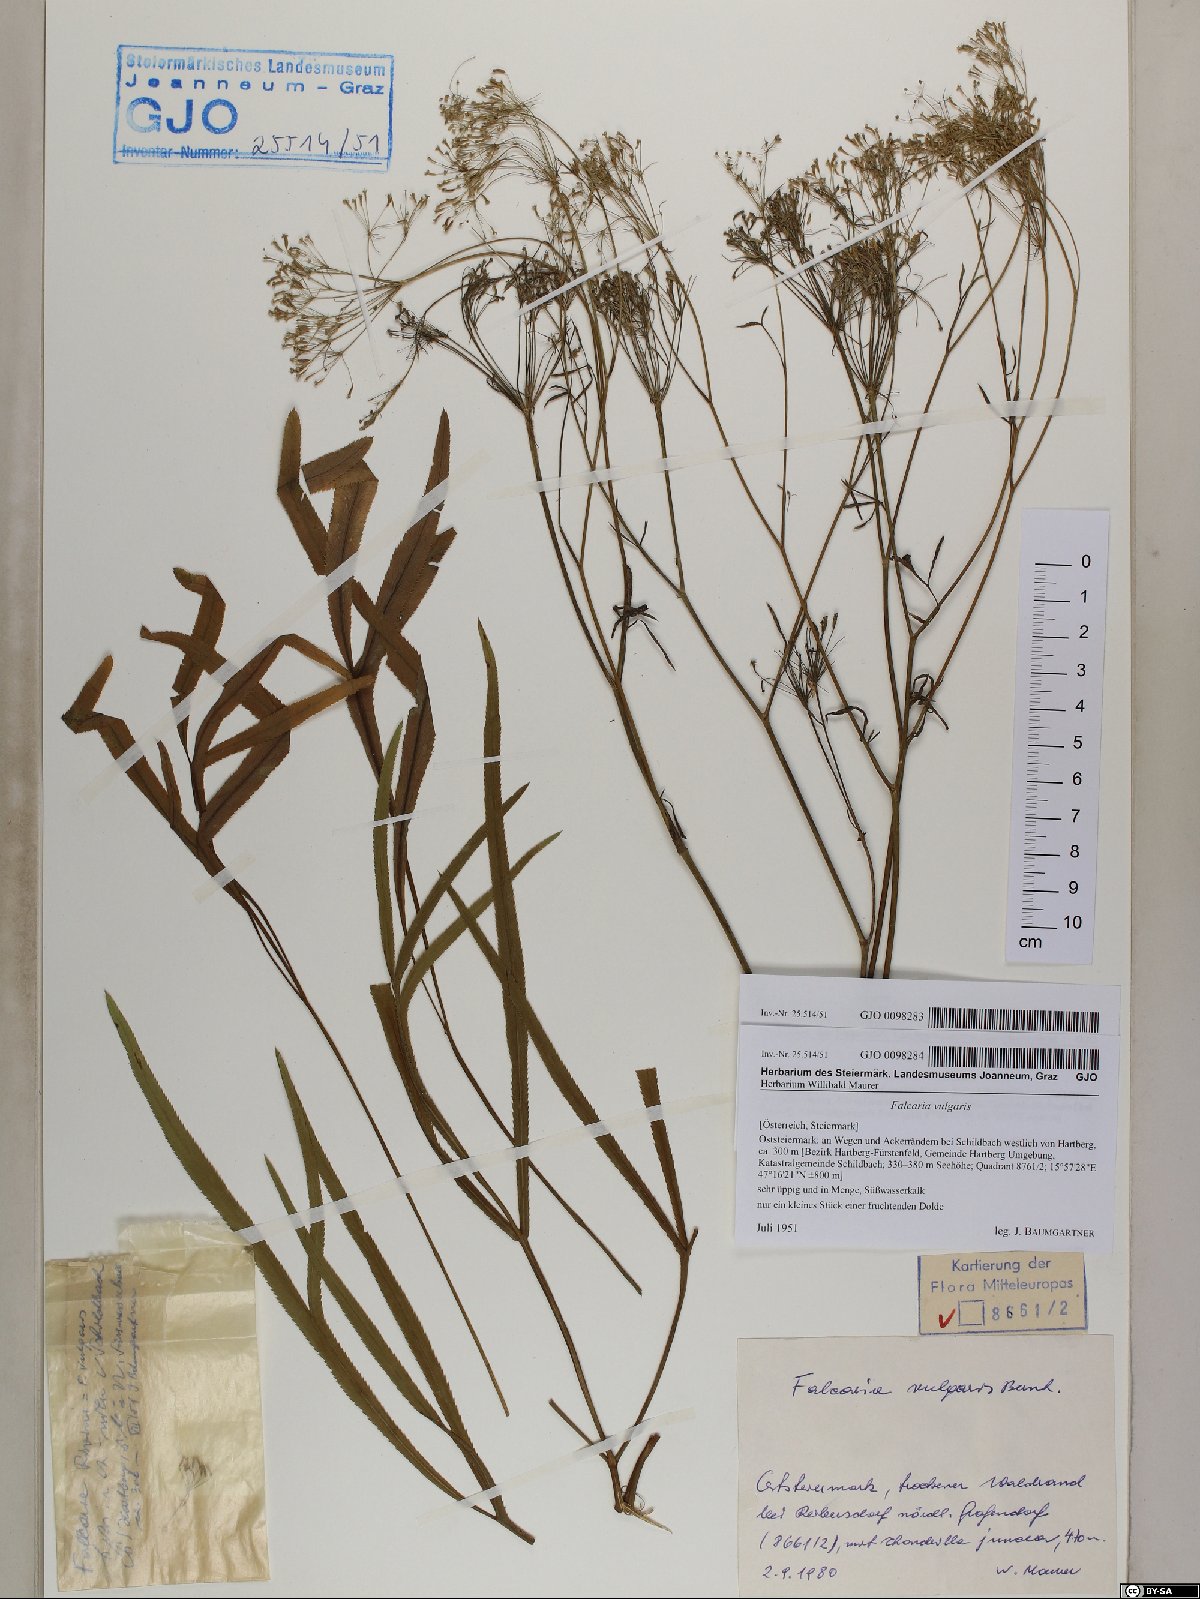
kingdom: Plantae
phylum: Tracheophyta
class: Magnoliopsida
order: Apiales
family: Apiaceae
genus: Falcaria
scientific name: Falcaria vulgaris
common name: Longleaf
